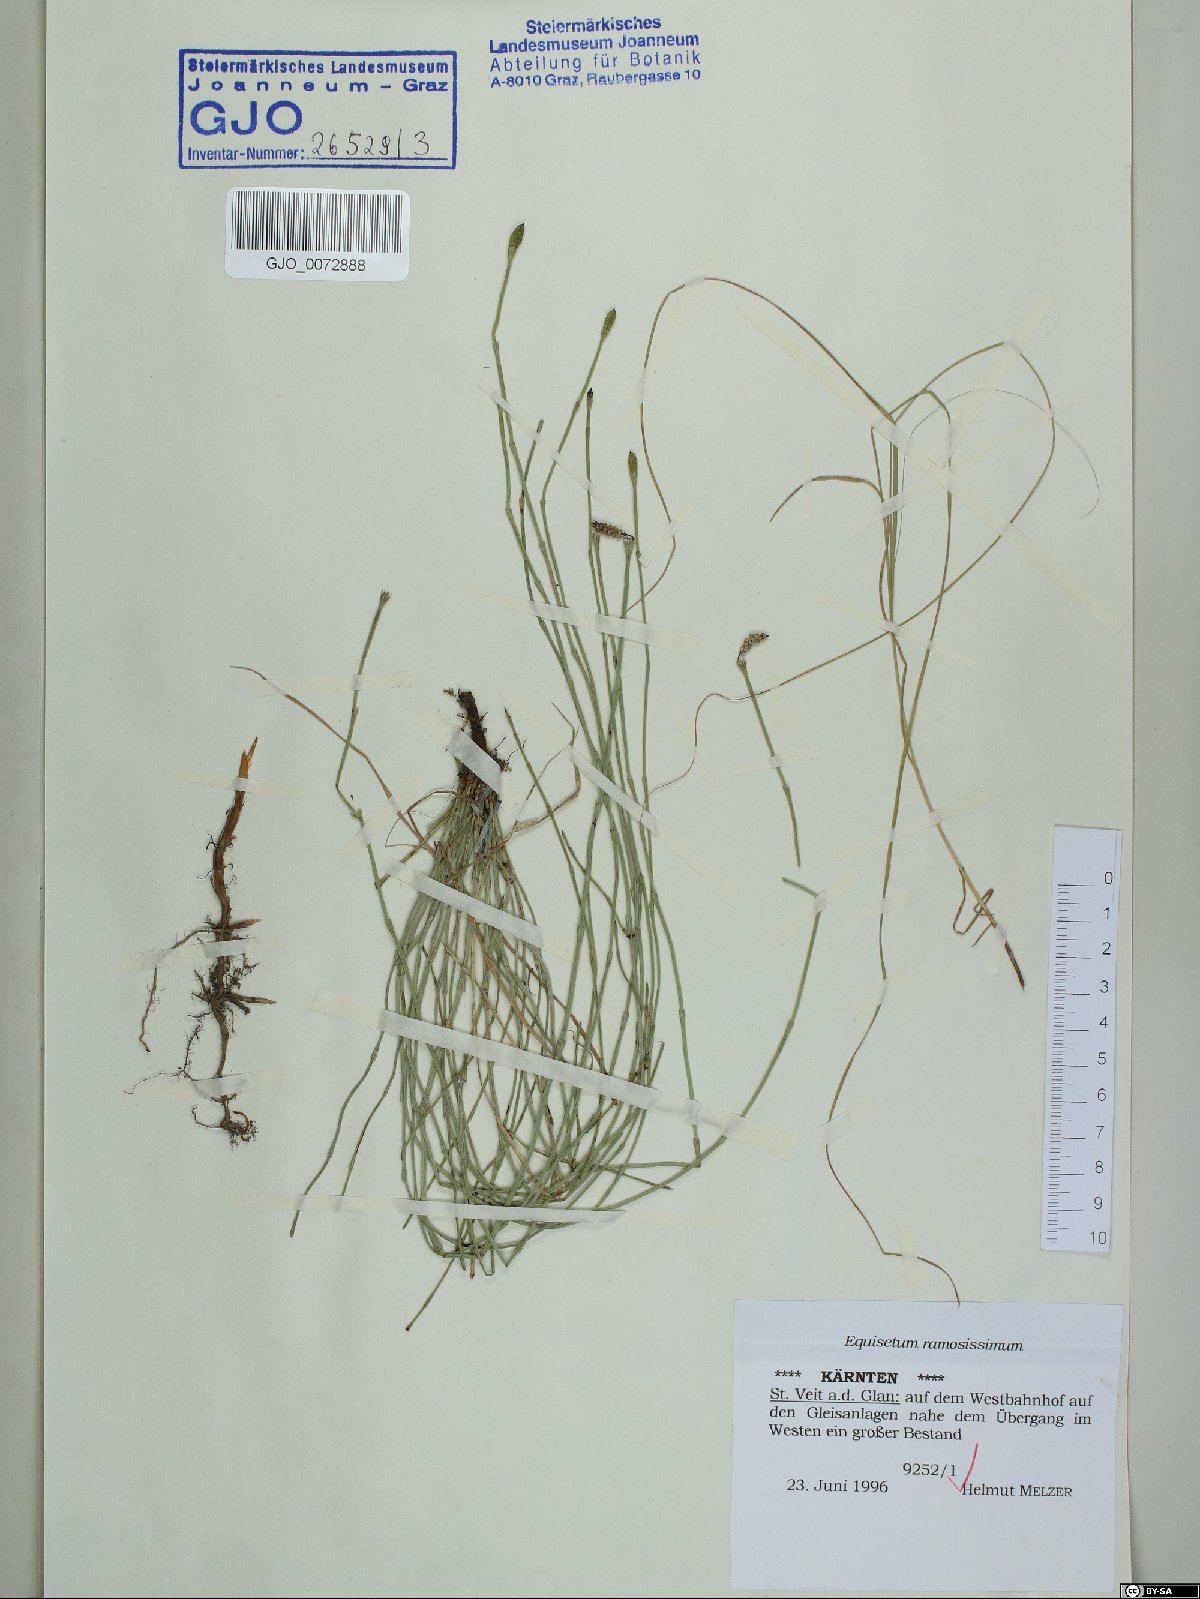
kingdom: Plantae
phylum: Tracheophyta
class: Polypodiopsida
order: Equisetales
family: Equisetaceae
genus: Equisetum
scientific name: Equisetum ramosissimum
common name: Branched horsetail
